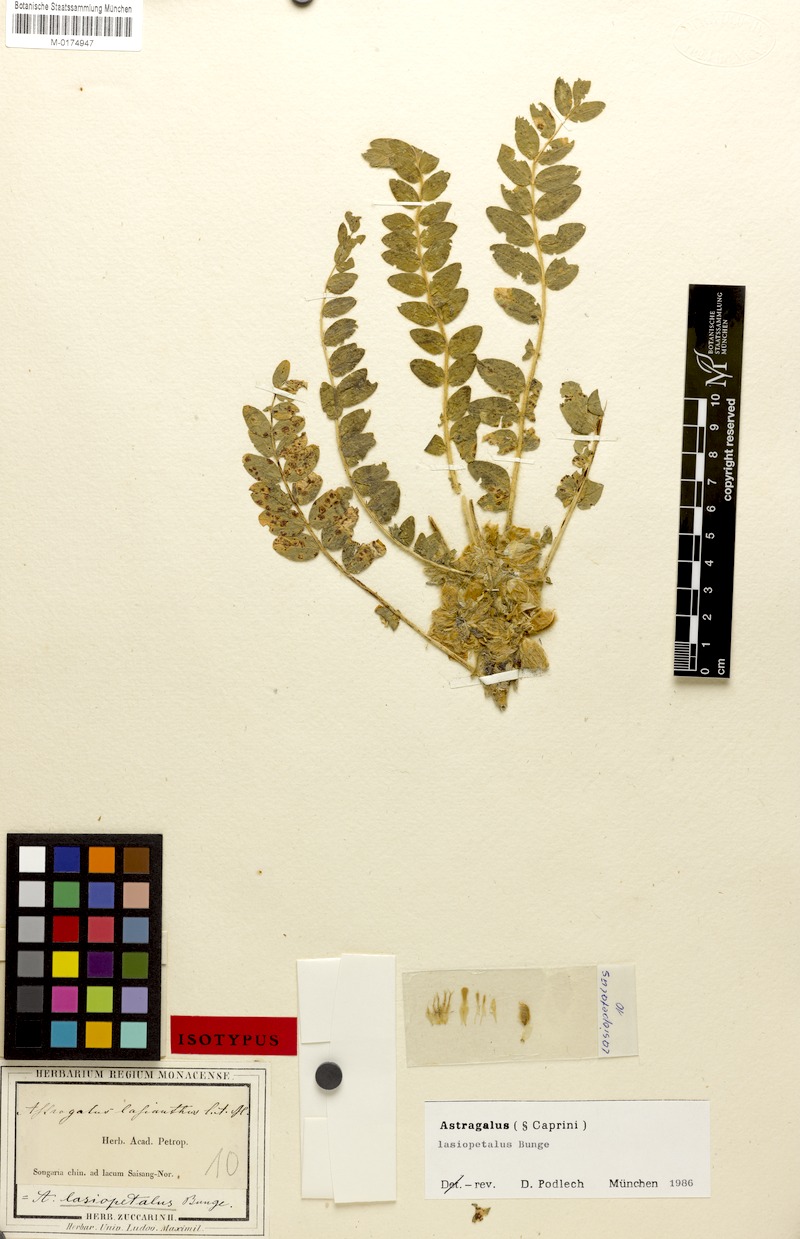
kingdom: Plantae
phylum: Tracheophyta
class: Magnoliopsida
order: Fabales
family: Fabaceae
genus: Astragalus
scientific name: Astragalus lasiopetalus
